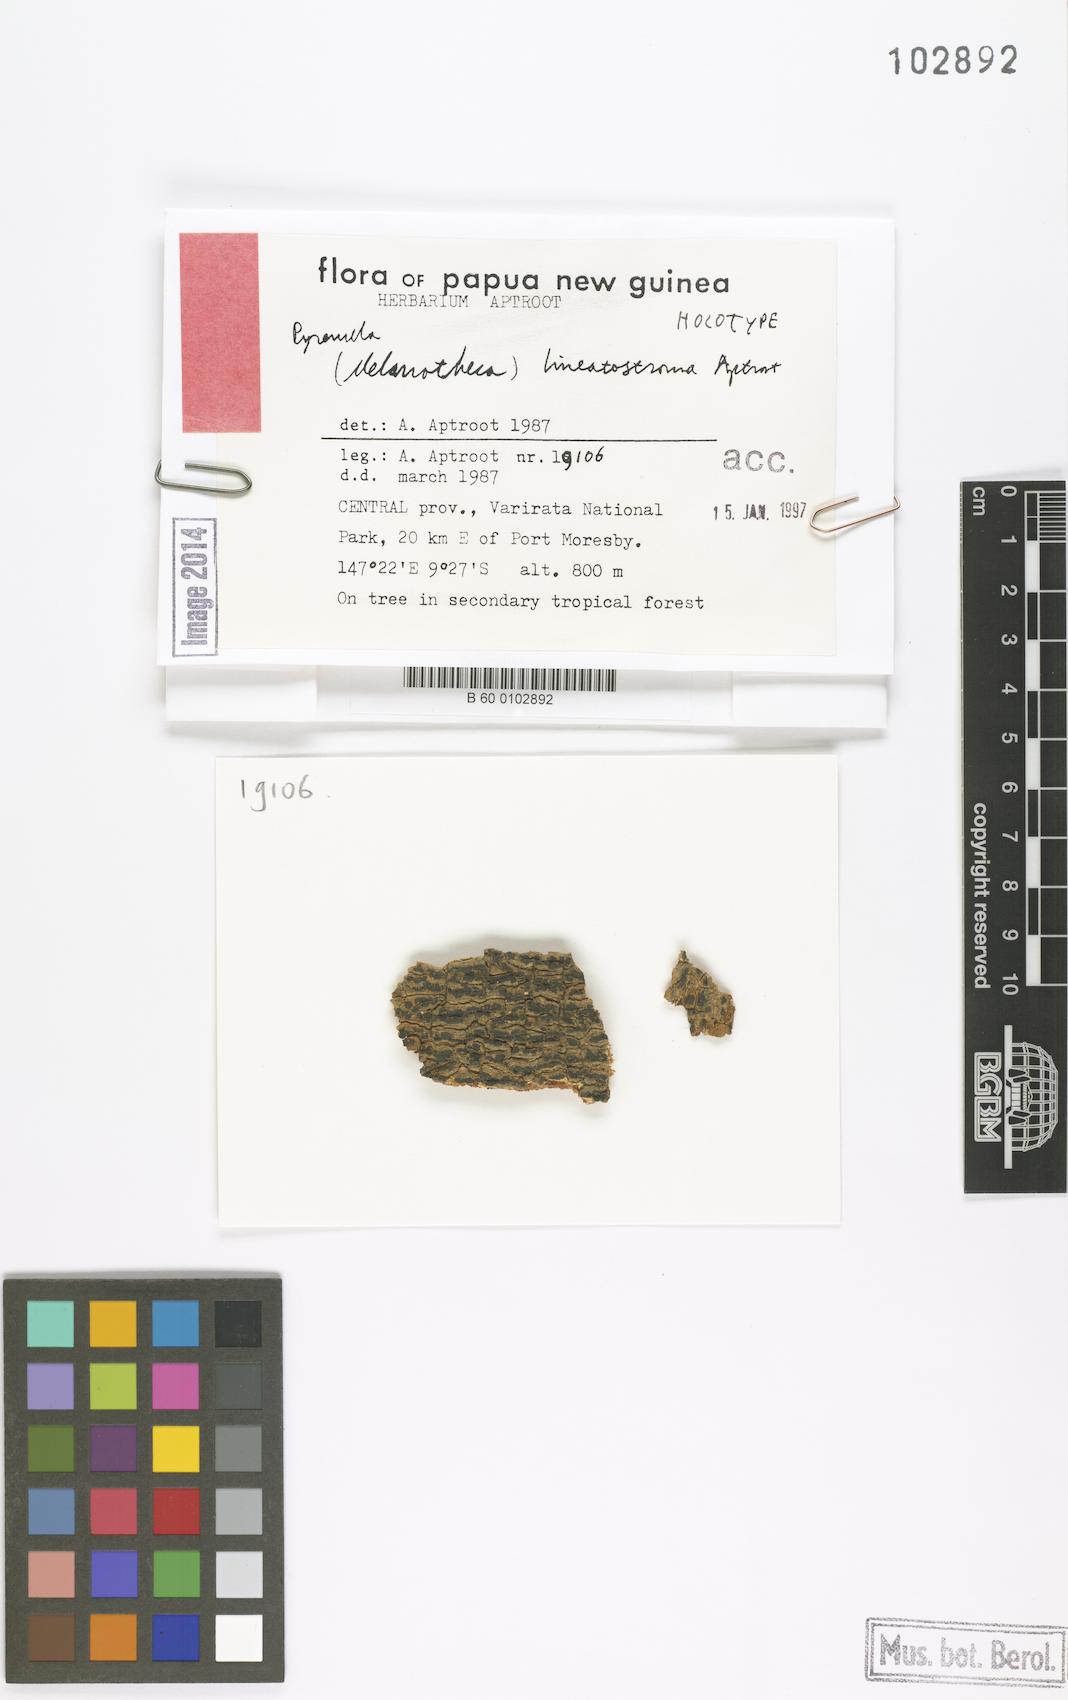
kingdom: Fungi
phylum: Ascomycota
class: Eurotiomycetes
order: Pyrenulales
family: Pyrenulaceae
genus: Pyrenula
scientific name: Pyrenula lineatostroma
